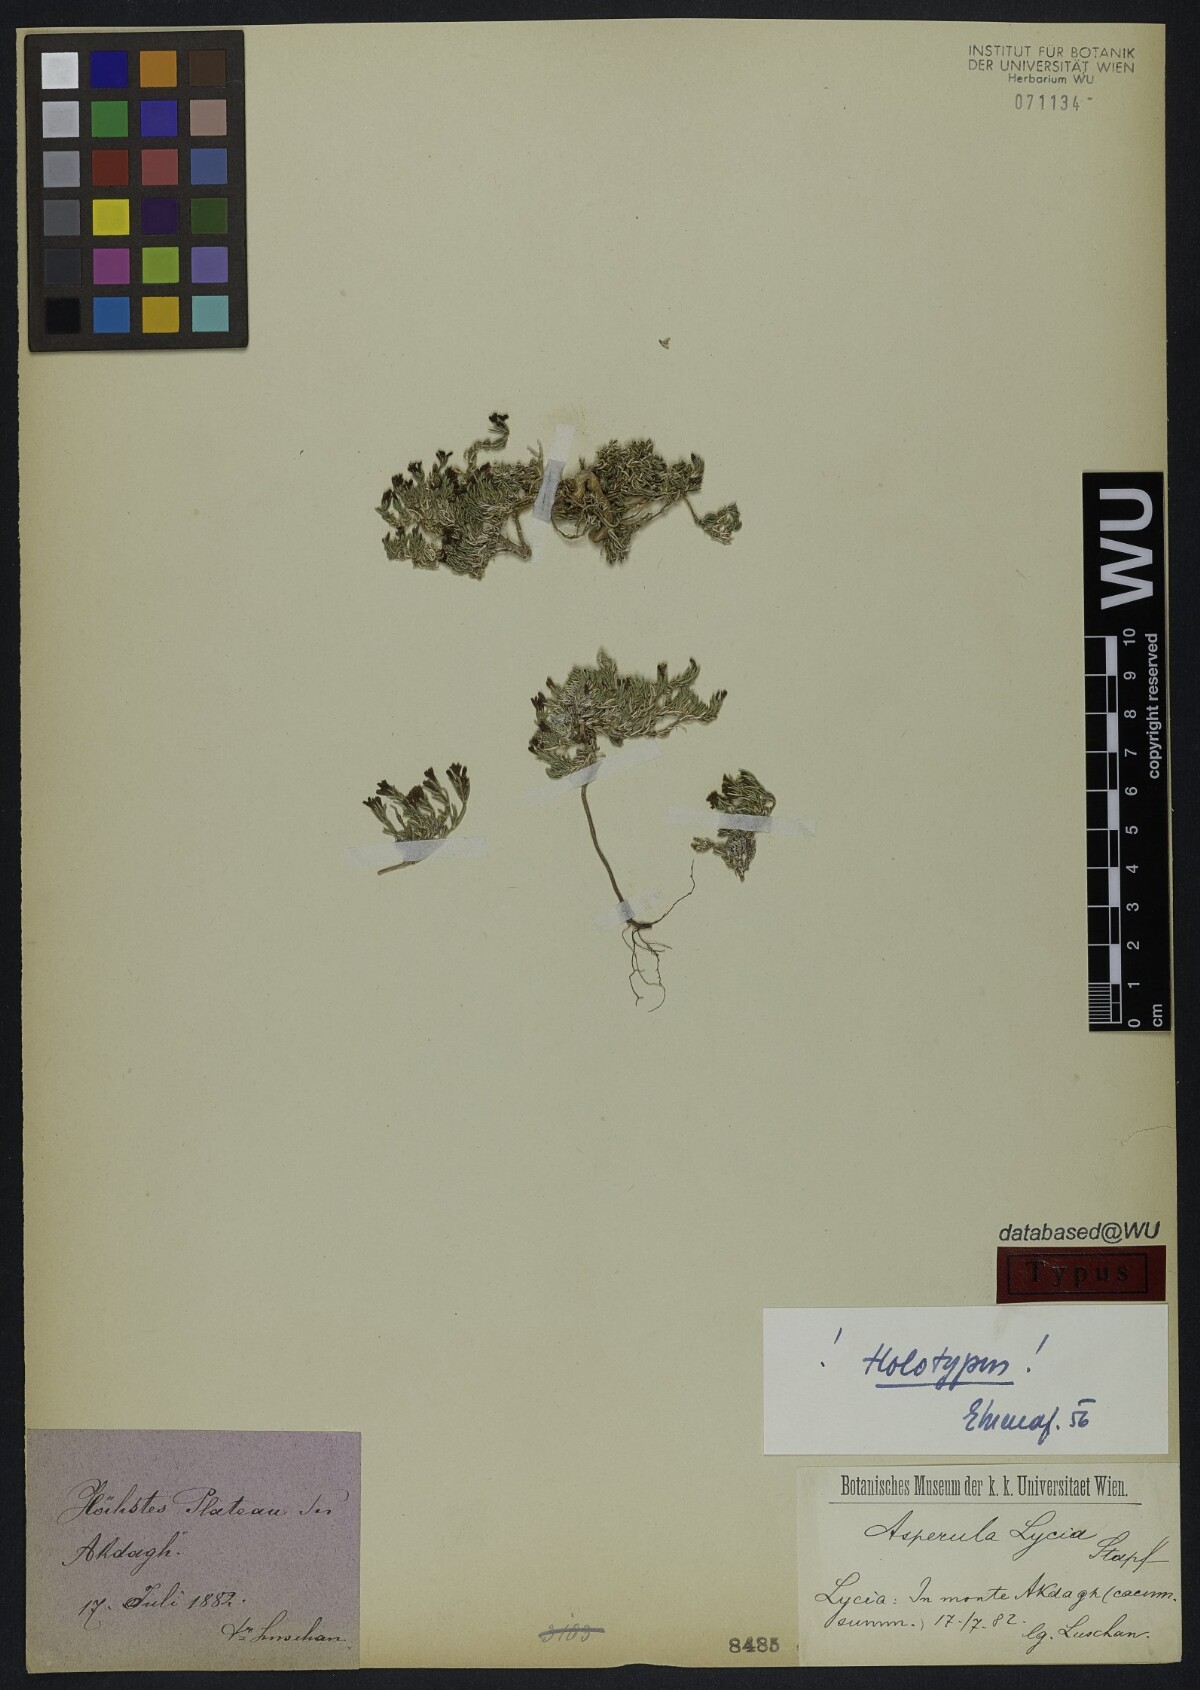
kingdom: Plantae
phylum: Tracheophyta
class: Magnoliopsida
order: Gentianales
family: Rubiaceae
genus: Cynanchica
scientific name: Cynanchica lycia
